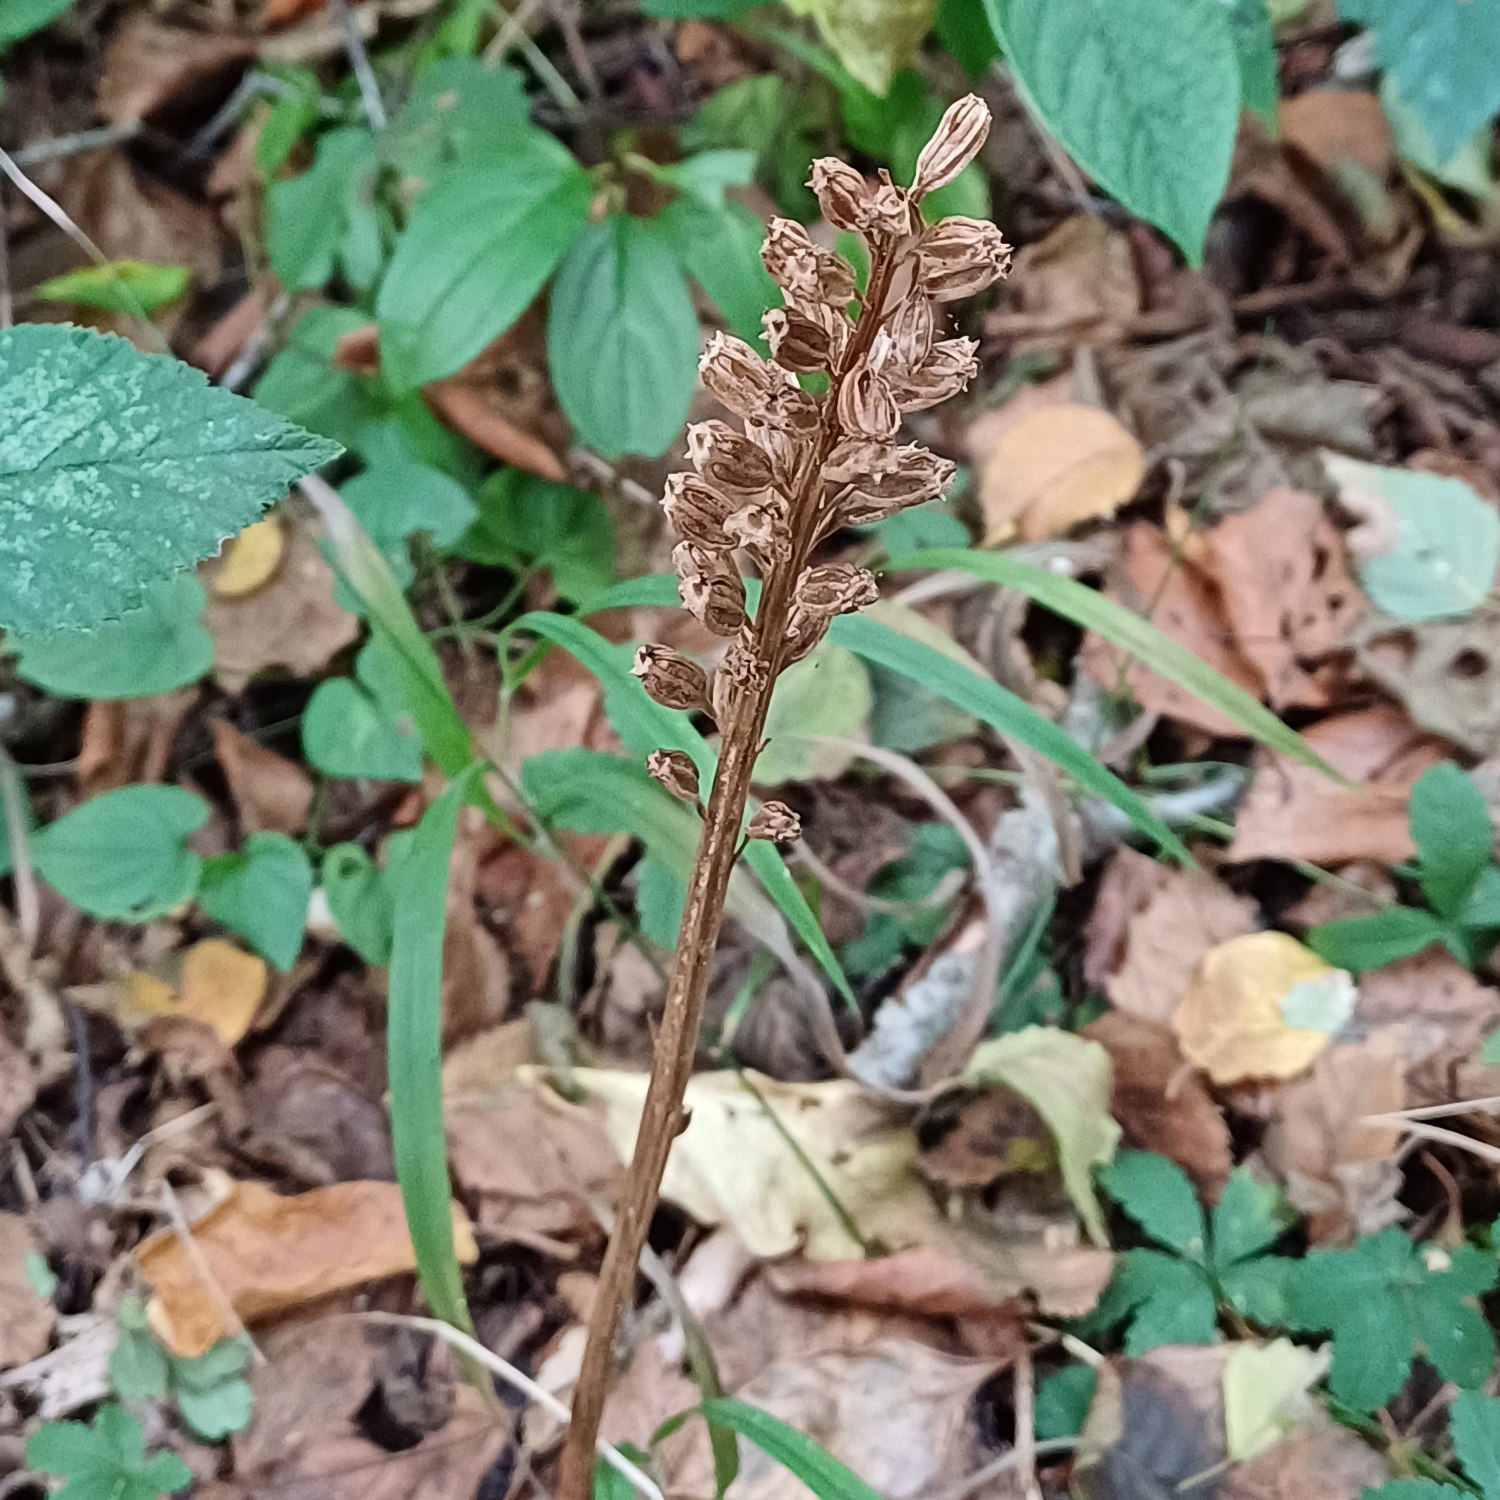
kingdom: Plantae
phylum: Tracheophyta
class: Liliopsida
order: Asparagales
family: Orchidaceae
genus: Neottia
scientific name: Neottia nidus-avis
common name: Rederod
